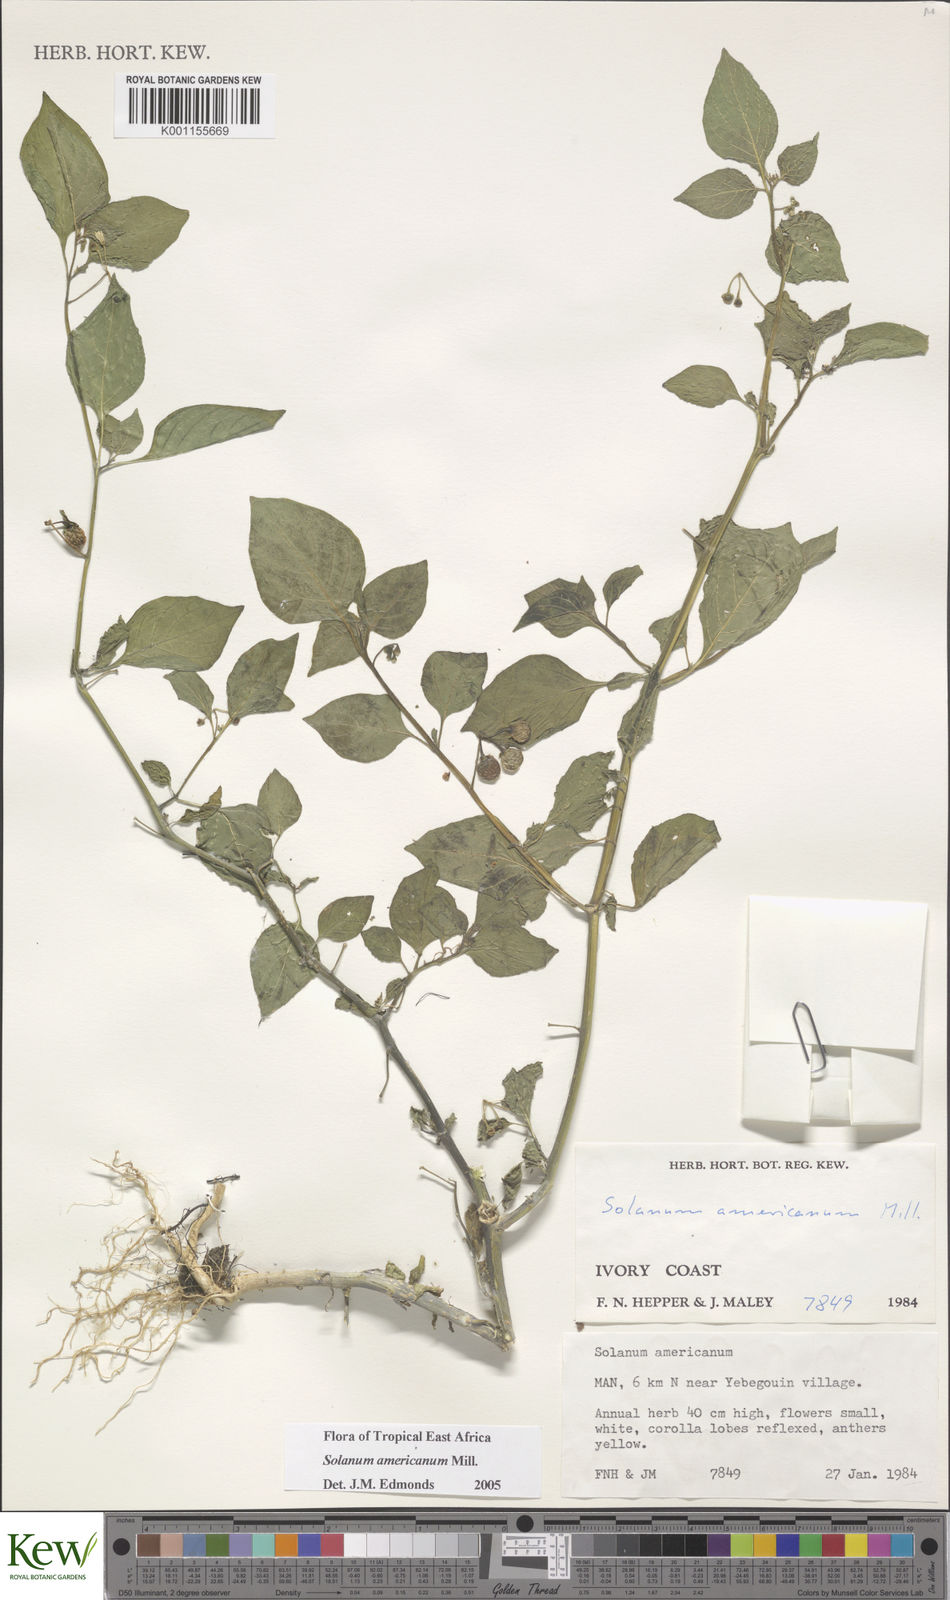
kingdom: Plantae
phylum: Tracheophyta
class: Magnoliopsida
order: Solanales
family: Solanaceae
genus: Solanum
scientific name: Solanum scabrum
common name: Garden-huckleberry
